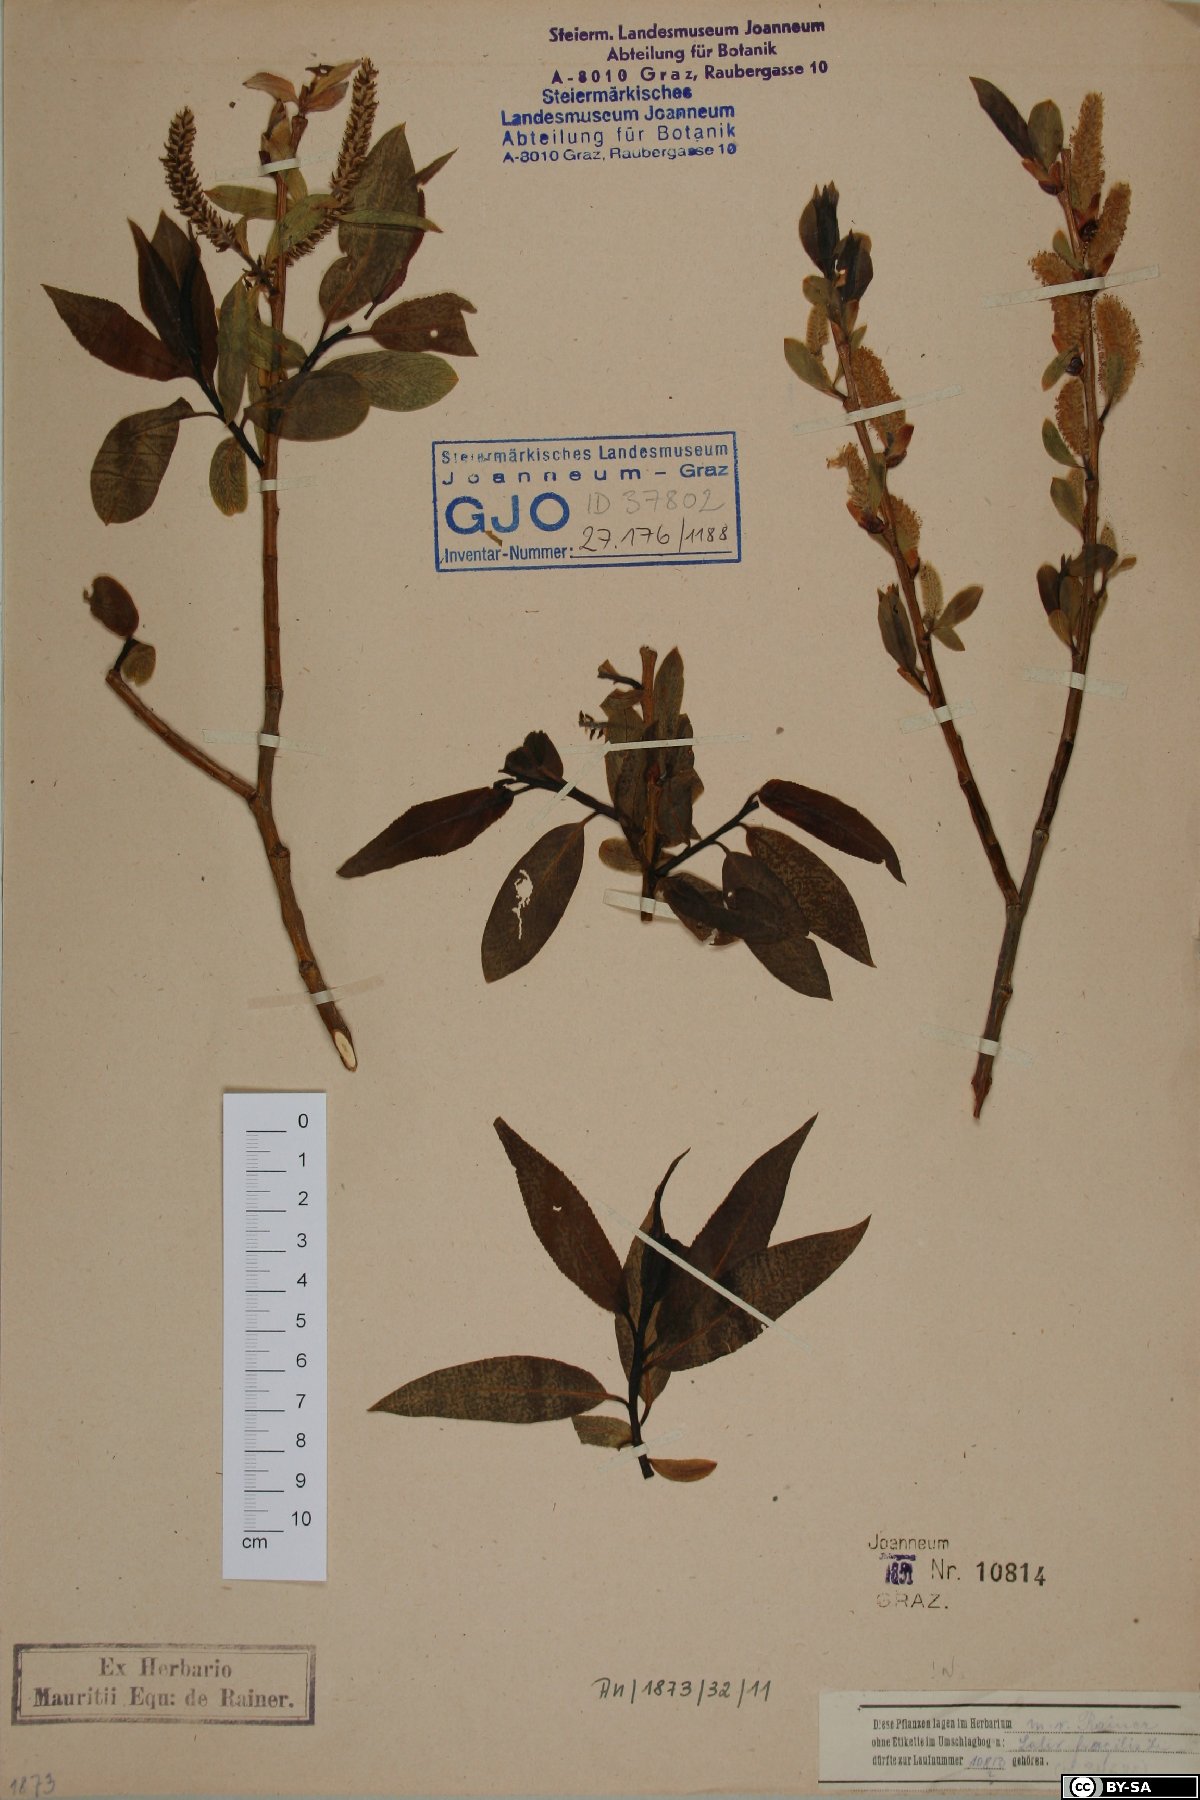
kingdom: Plantae
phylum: Tracheophyta
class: Magnoliopsida
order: Malpighiales
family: Salicaceae
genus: Salix
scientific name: Salix fragilis
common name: Crack willow
